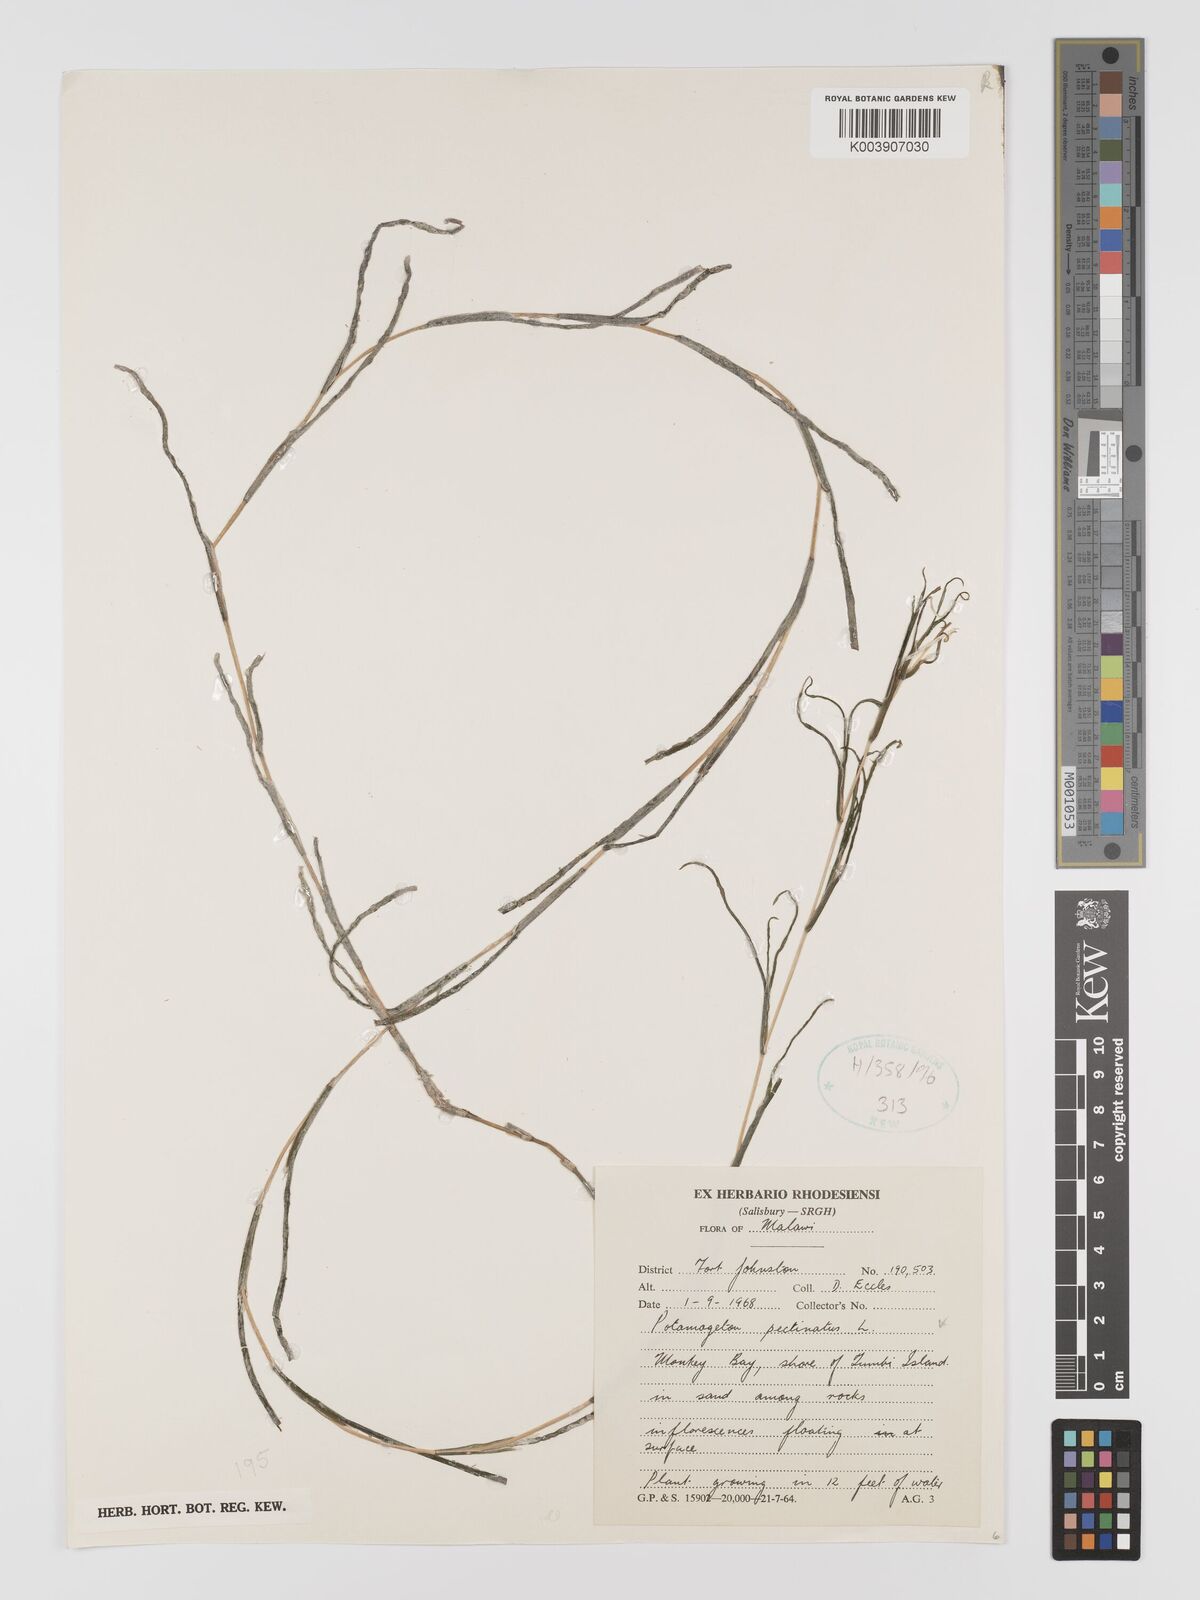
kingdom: Plantae
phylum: Tracheophyta
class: Liliopsida
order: Alismatales
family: Potamogetonaceae
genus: Stuckenia
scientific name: Stuckenia pectinata
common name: Sago pondweed
